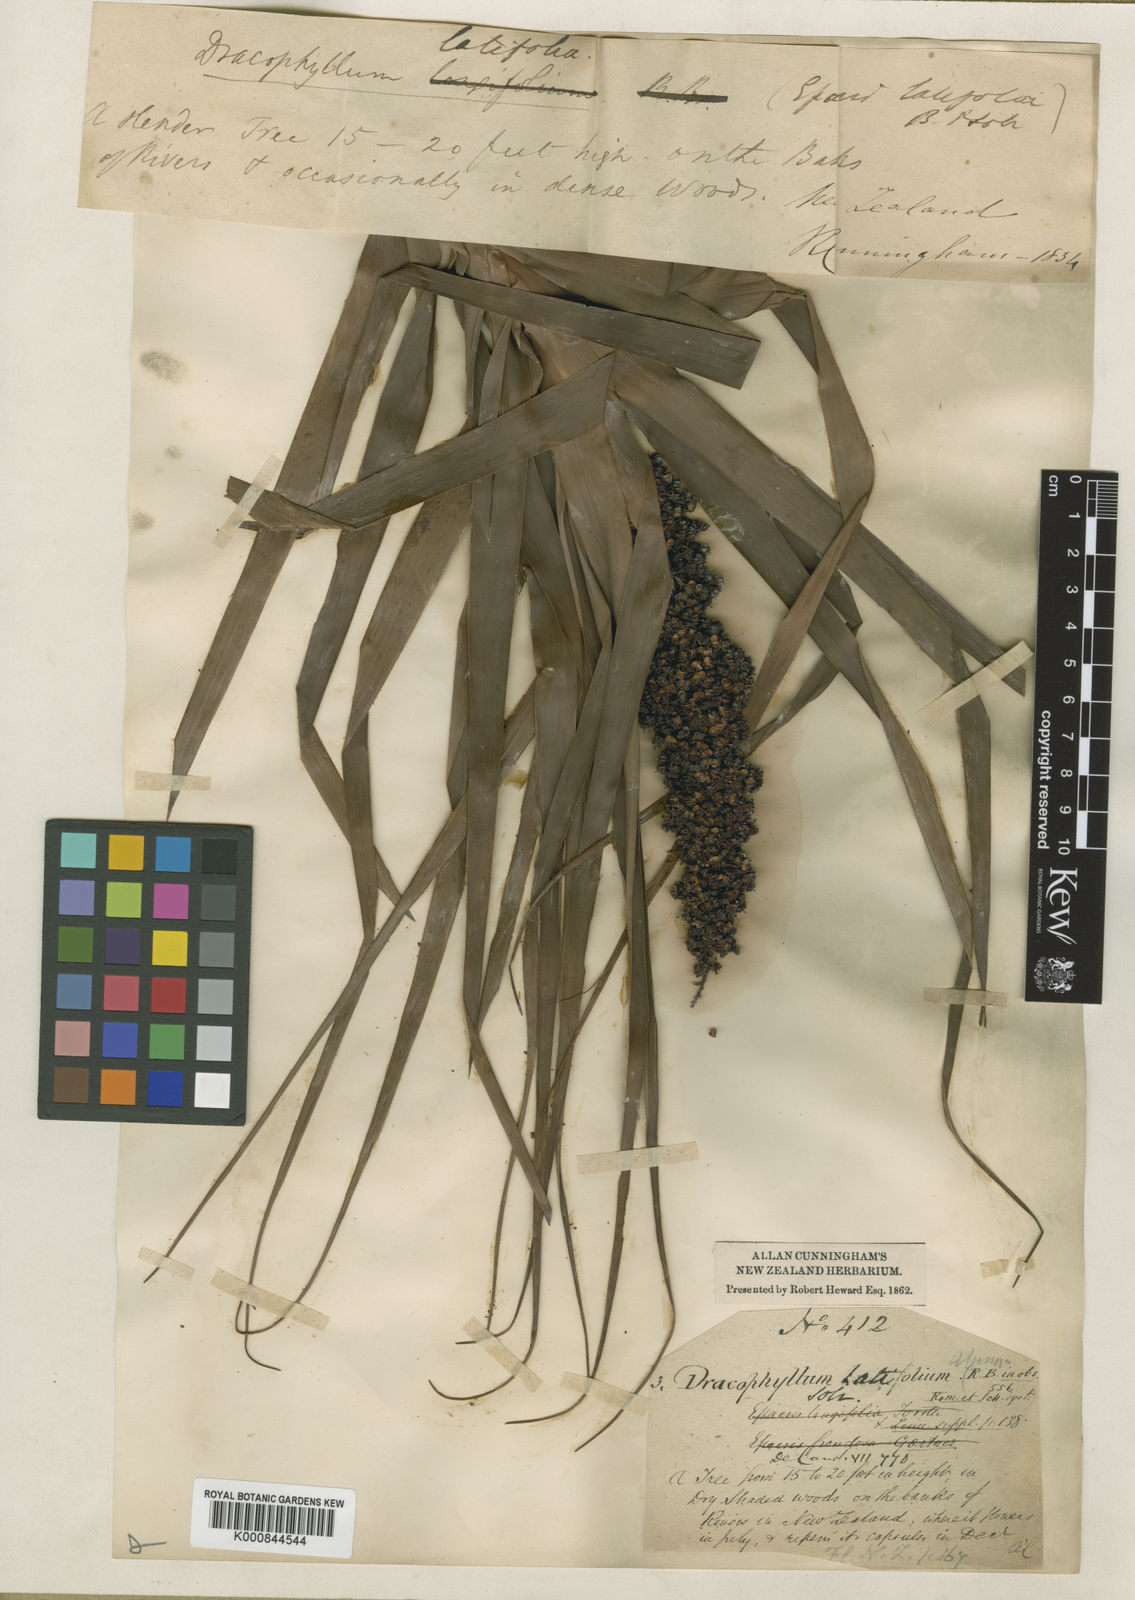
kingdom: Plantae
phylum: Tracheophyta
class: Magnoliopsida
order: Ericales
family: Ericaceae
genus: Dracophyllum
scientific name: Dracophyllum latifolium
